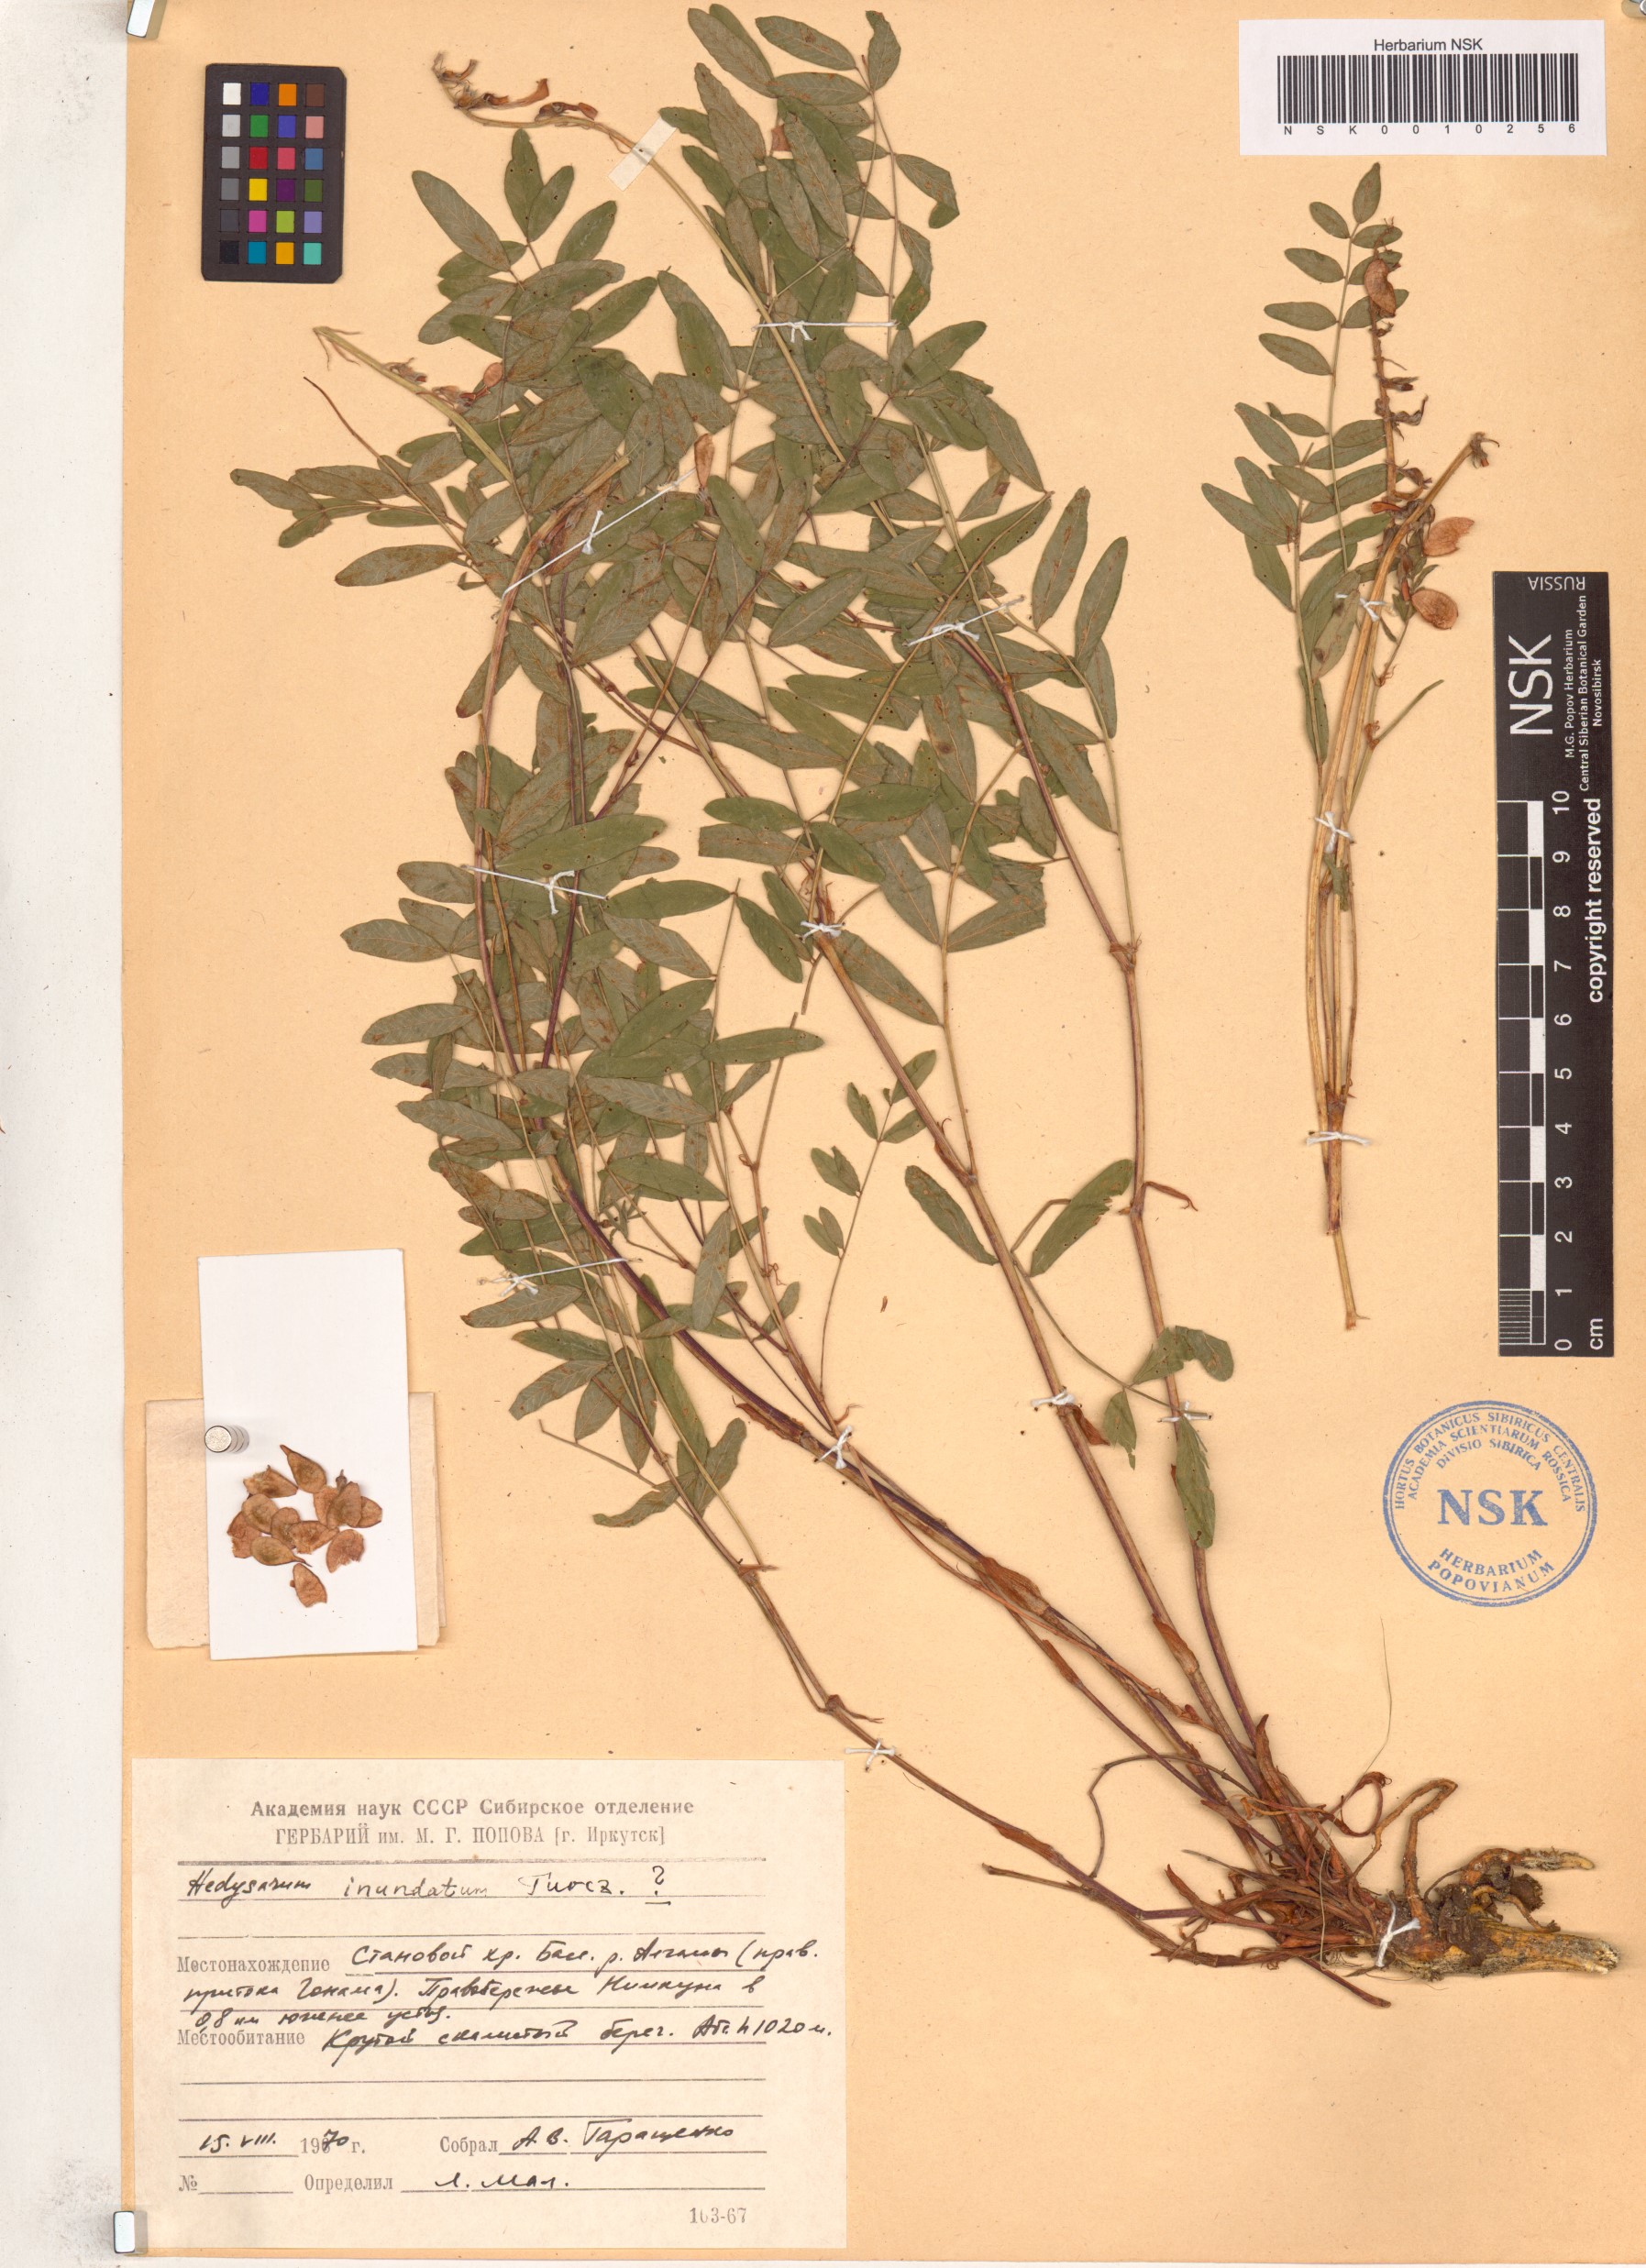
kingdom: Plantae
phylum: Tracheophyta
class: Magnoliopsida
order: Fabales
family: Fabaceae
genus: Hedysarum
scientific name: Hedysarum inundatum
